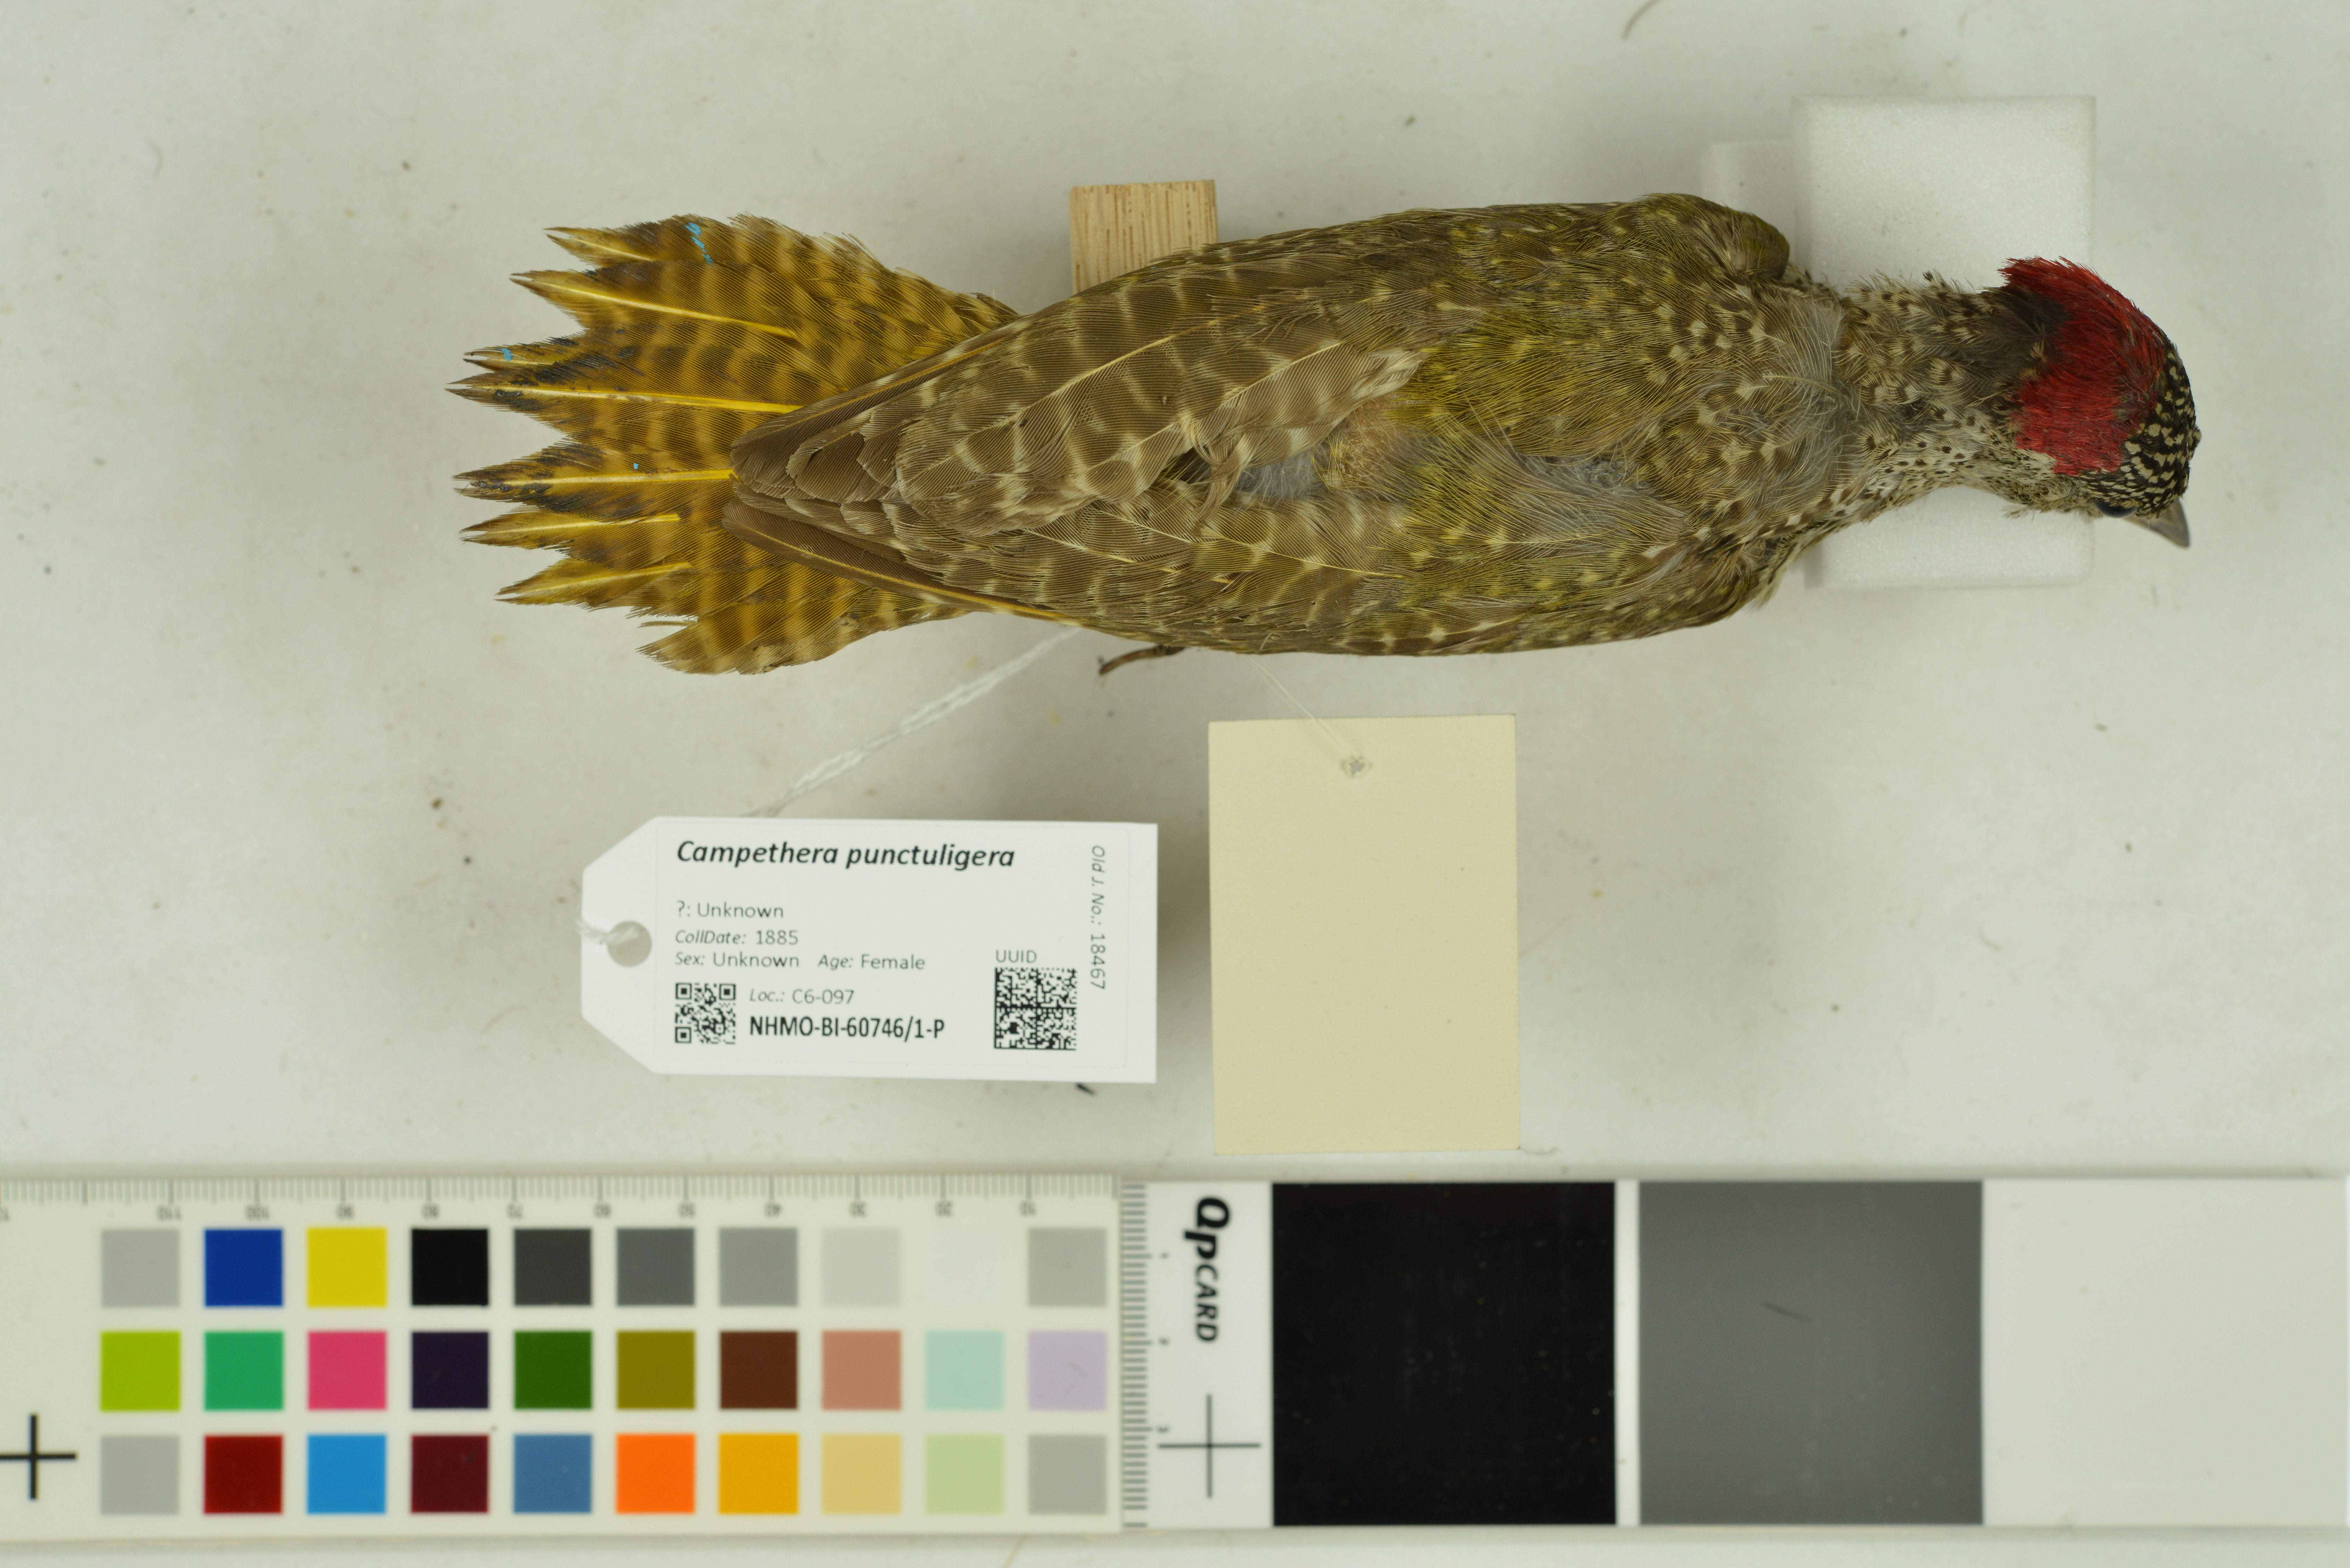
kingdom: Animalia
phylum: Chordata
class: Aves
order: Piciformes
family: Picidae
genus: Campethera
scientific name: Campethera punctuligera
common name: Fine-spotted woodpecker
